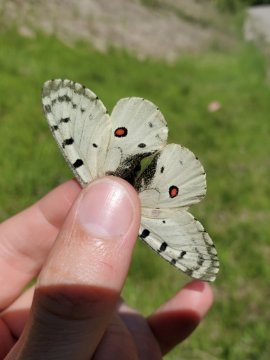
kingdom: Animalia
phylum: Arthropoda
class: Insecta
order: Lepidoptera
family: Papilionidae
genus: Parnassius
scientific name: Parnassius smintheus
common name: Rocky Mountain Parnassian
